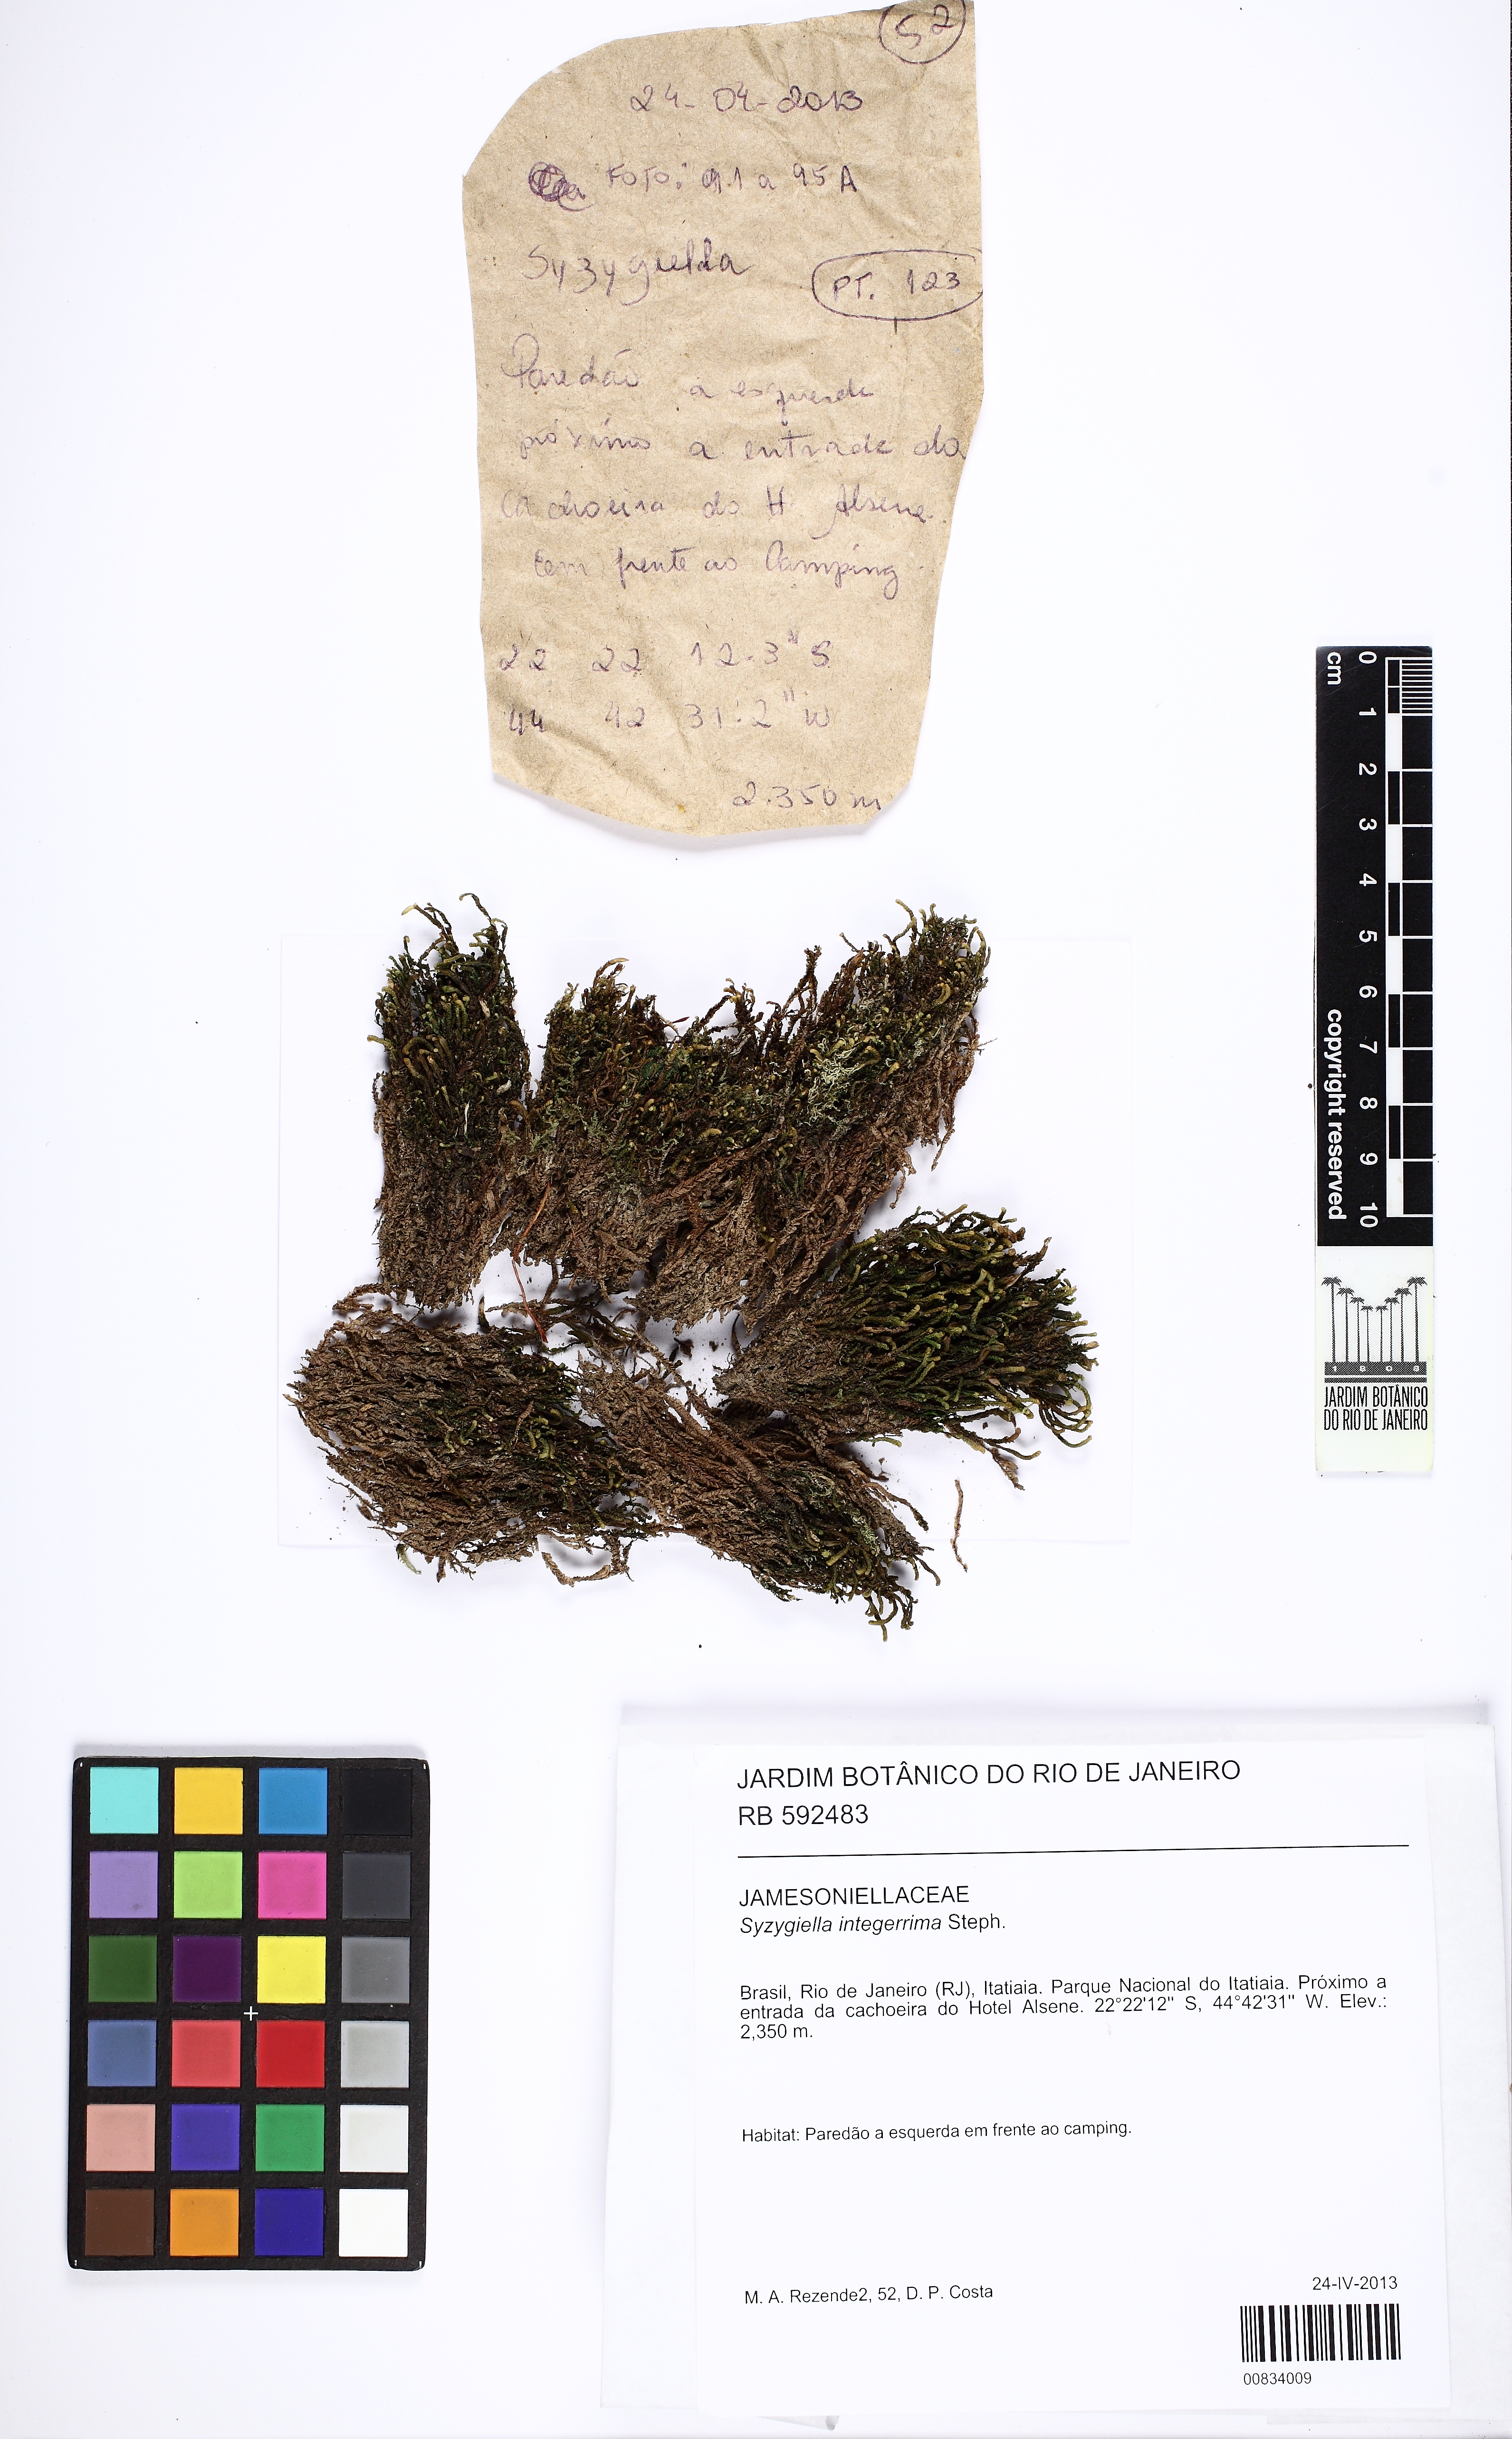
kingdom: Plantae
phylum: Marchantiophyta
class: Jungermanniopsida
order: Jungermanniales
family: Adelanthaceae
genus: Syzygiella
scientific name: Syzygiella contigua
